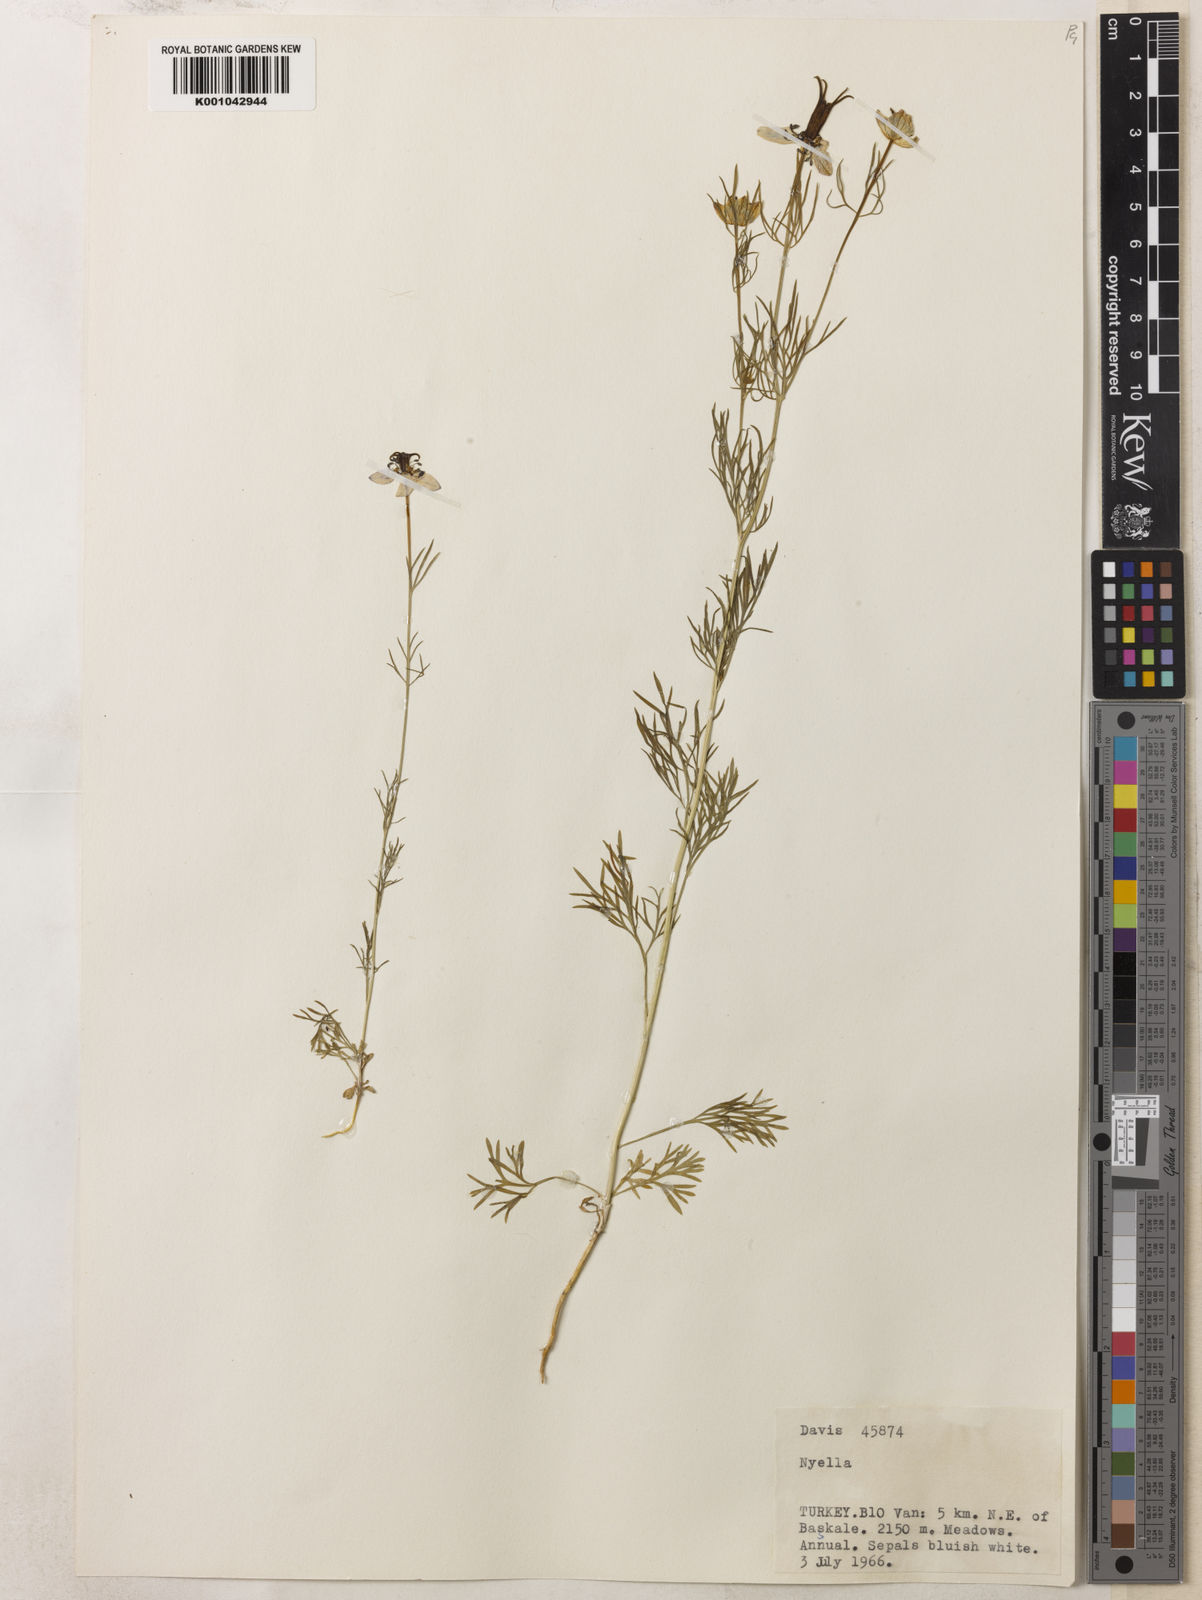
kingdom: Plantae
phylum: Tracheophyta
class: Magnoliopsida
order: Ranunculales
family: Ranunculaceae
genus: Nigella
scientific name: Nigella segetalis
